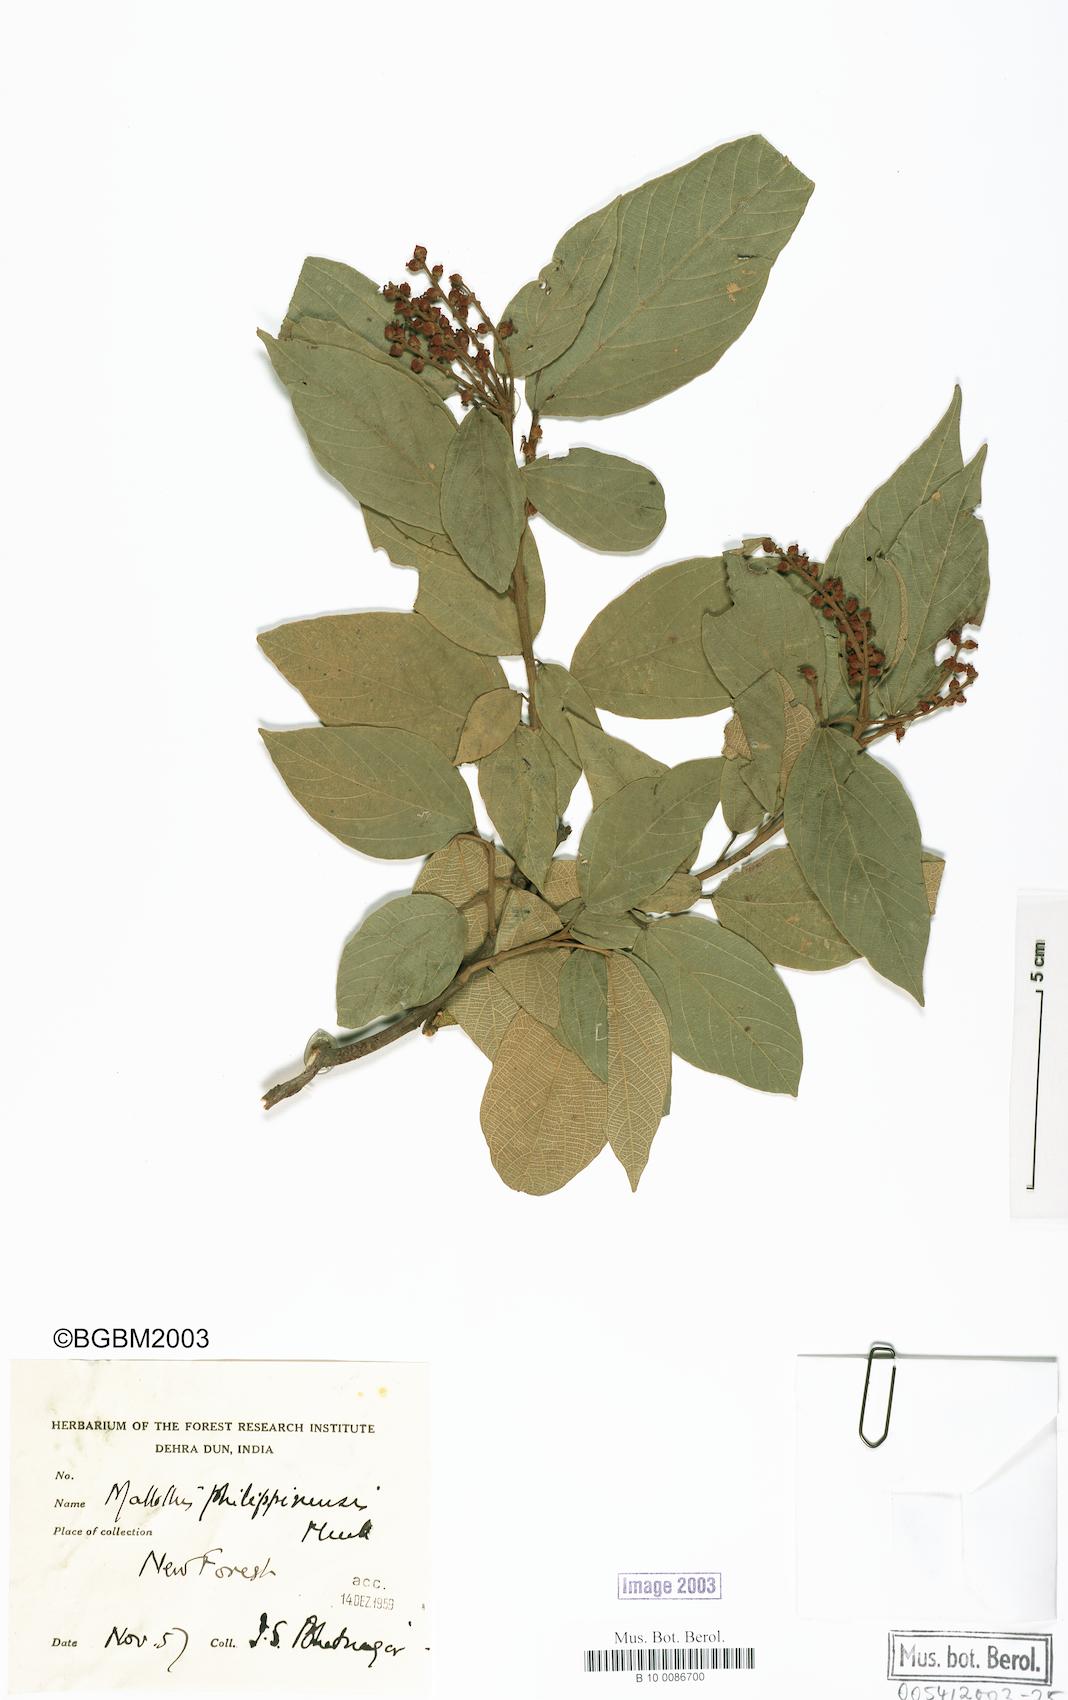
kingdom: Plantae
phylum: Tracheophyta
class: Magnoliopsida
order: Malpighiales
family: Euphorbiaceae
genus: Mallotus
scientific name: Mallotus philippensis
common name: Kamala tree
